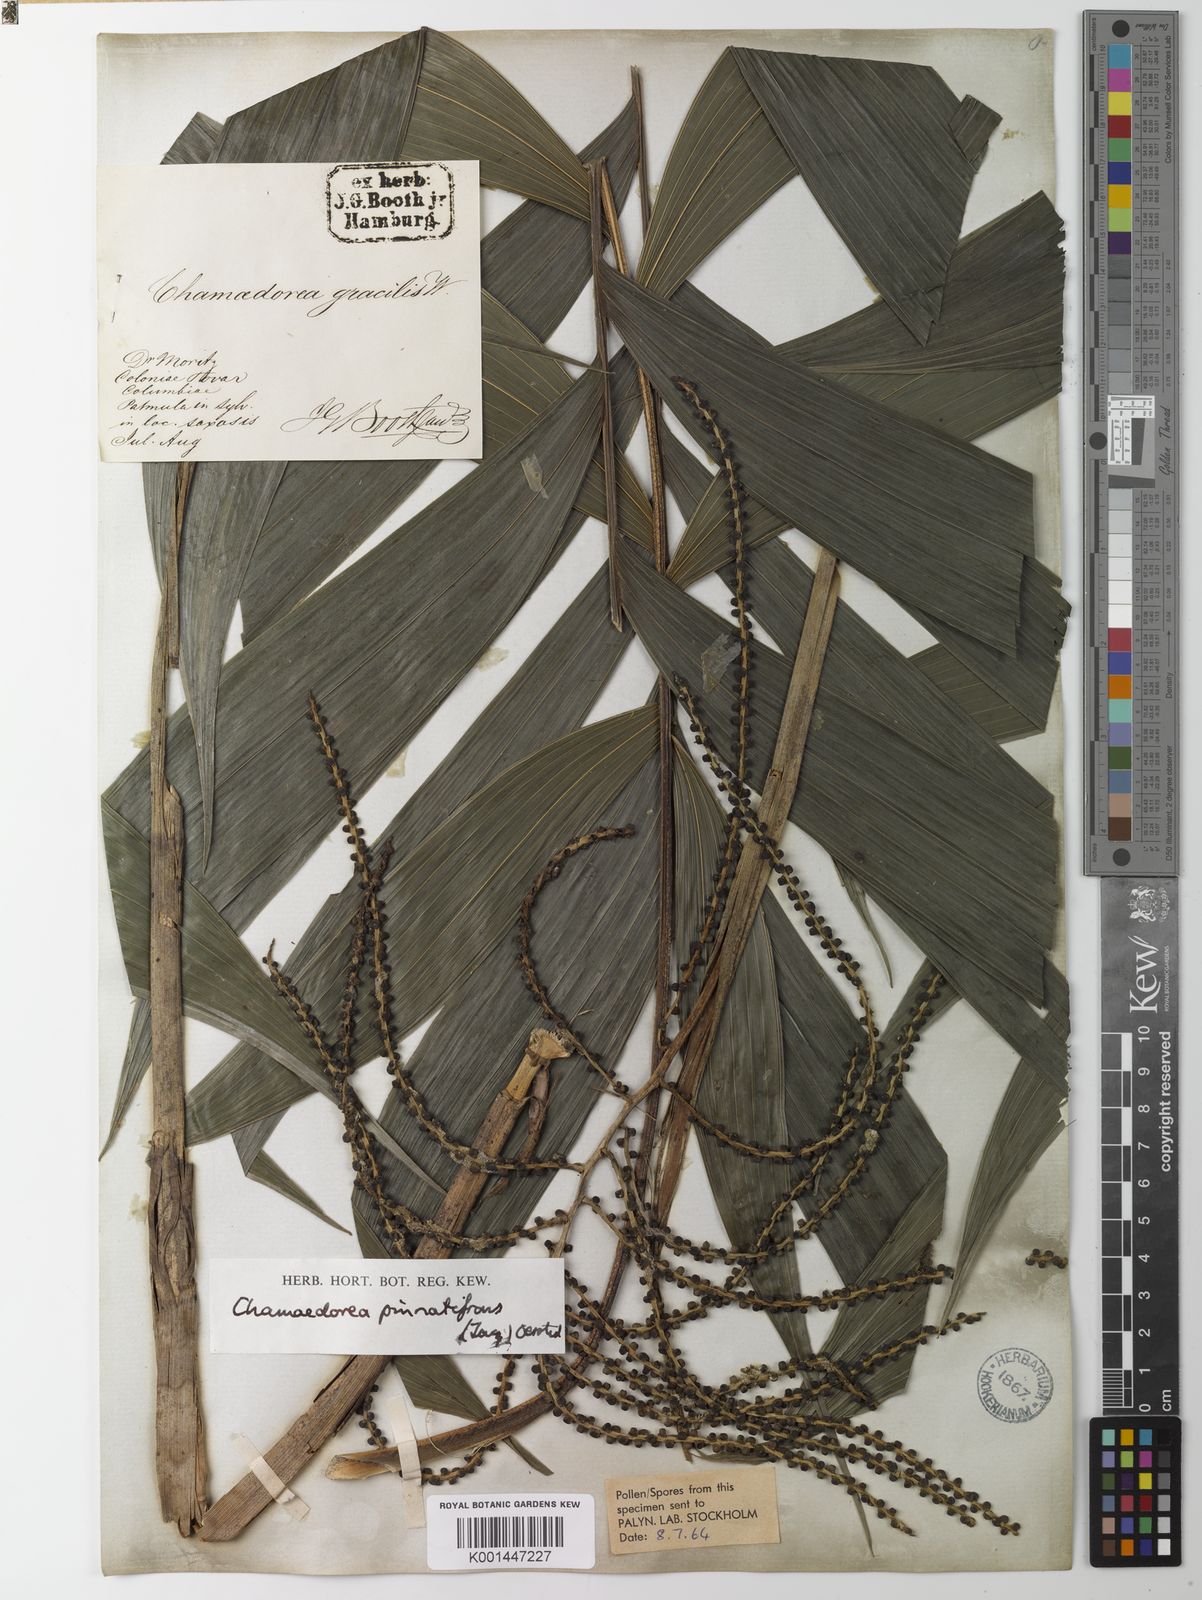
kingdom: Plantae
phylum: Tracheophyta
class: Liliopsida
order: Arecales
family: Arecaceae
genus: Chamaedorea
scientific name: Chamaedorea pinnatifrons
